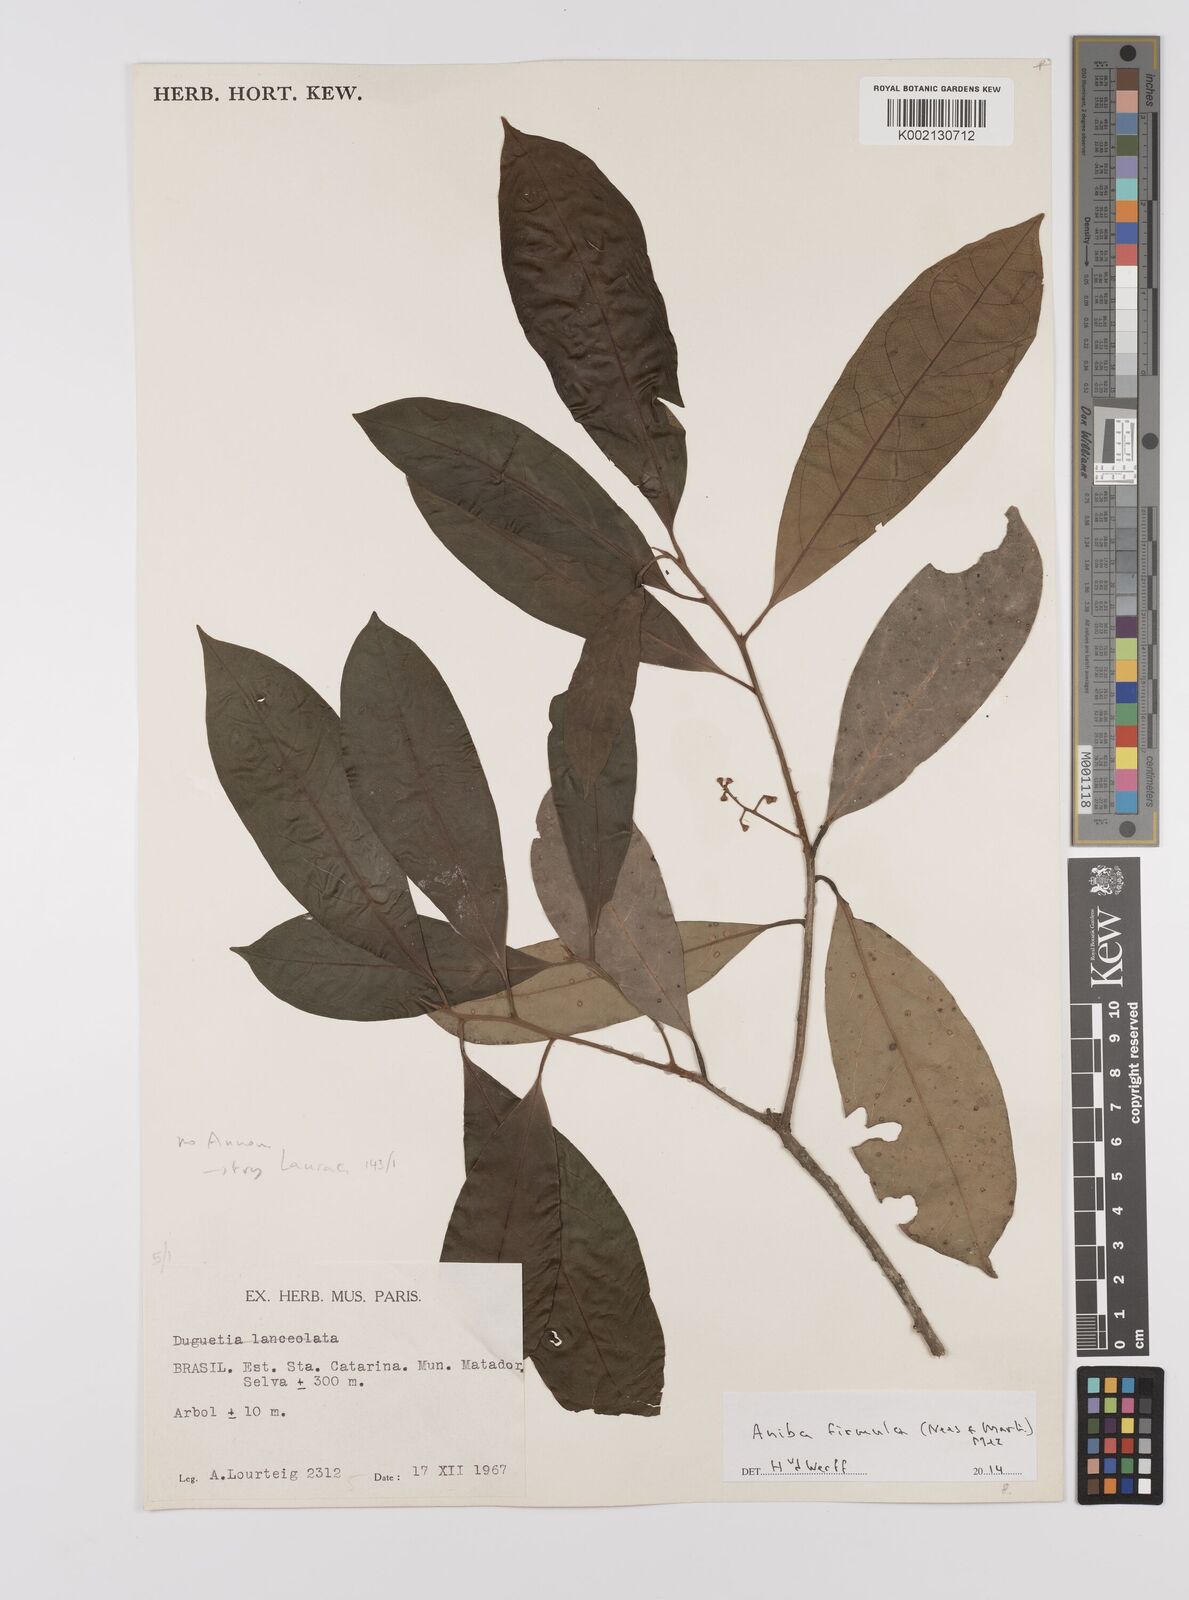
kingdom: Plantae
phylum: Tracheophyta
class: Magnoliopsida
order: Laurales
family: Lauraceae
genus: Aniba
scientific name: Aniba firmula
